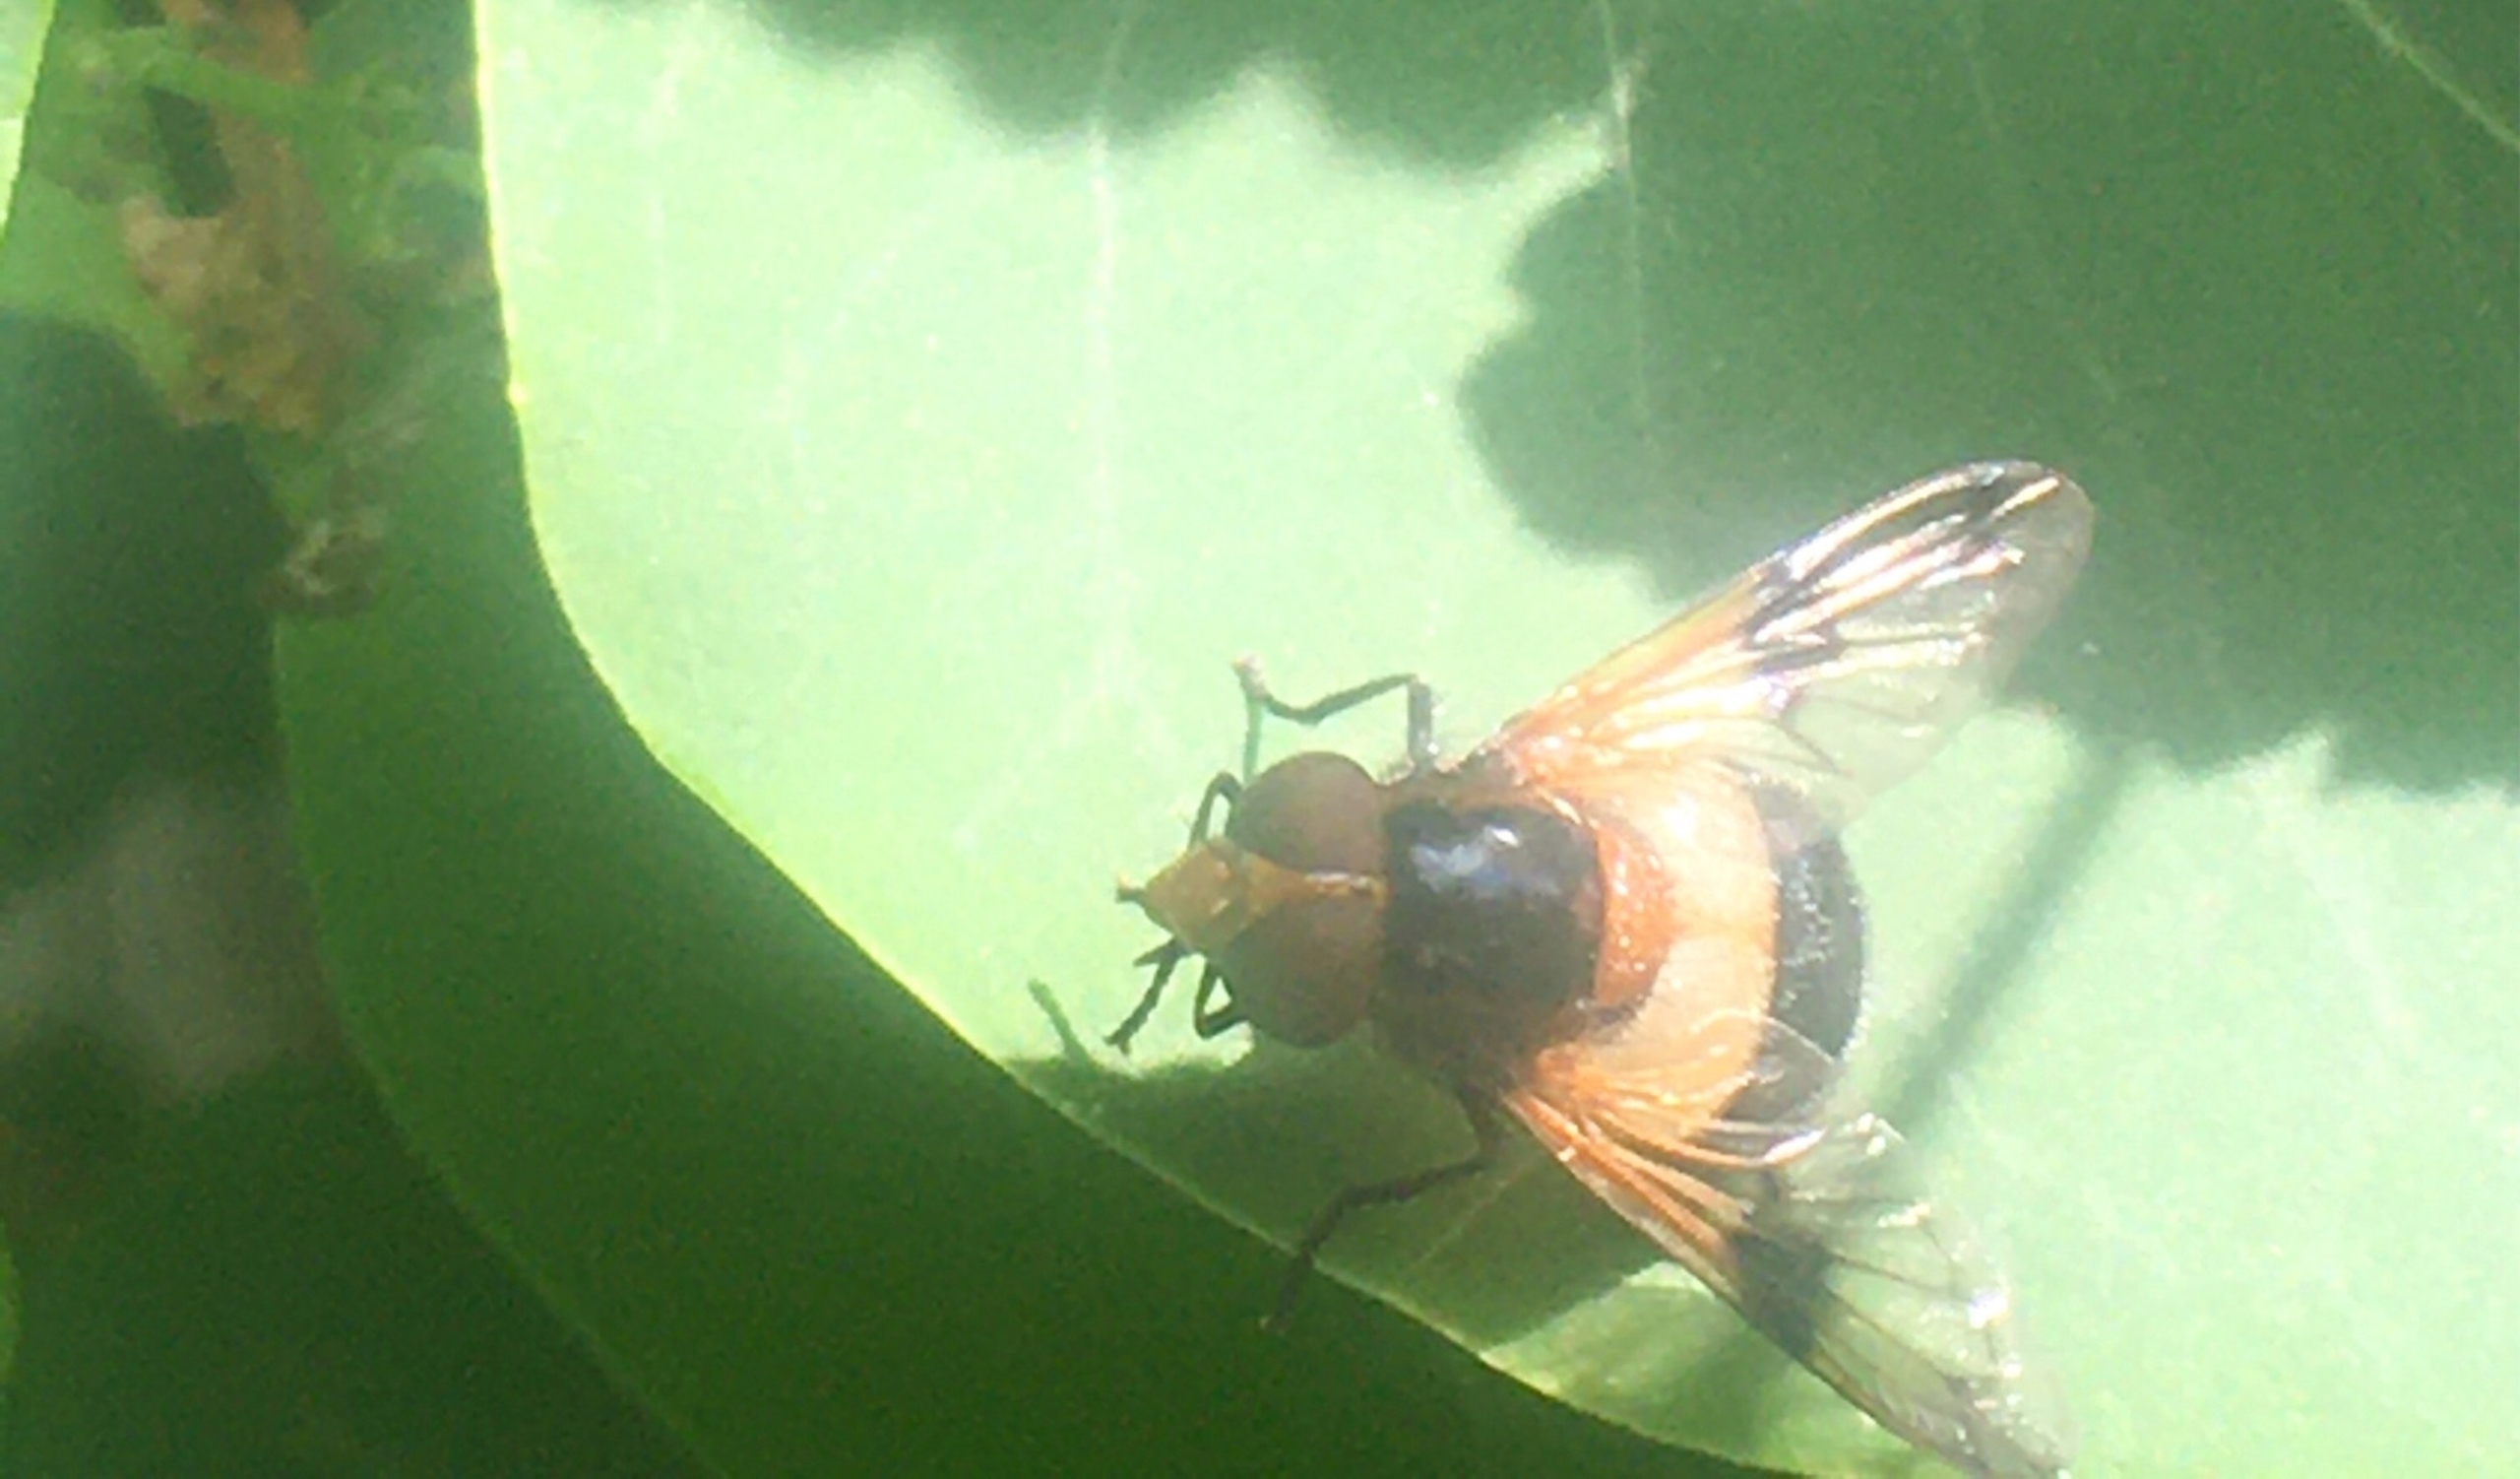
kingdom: Animalia
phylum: Arthropoda
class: Insecta
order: Diptera
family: Syrphidae
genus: Volucella
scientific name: Volucella pellucens
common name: Hvidbåndet humlesvirreflue
